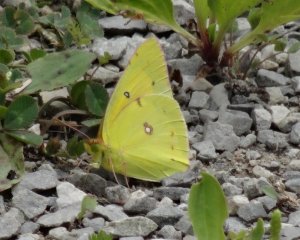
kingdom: Animalia
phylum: Arthropoda
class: Insecta
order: Lepidoptera
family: Pieridae
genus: Colias
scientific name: Colias eurytheme
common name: Orange Sulphur
